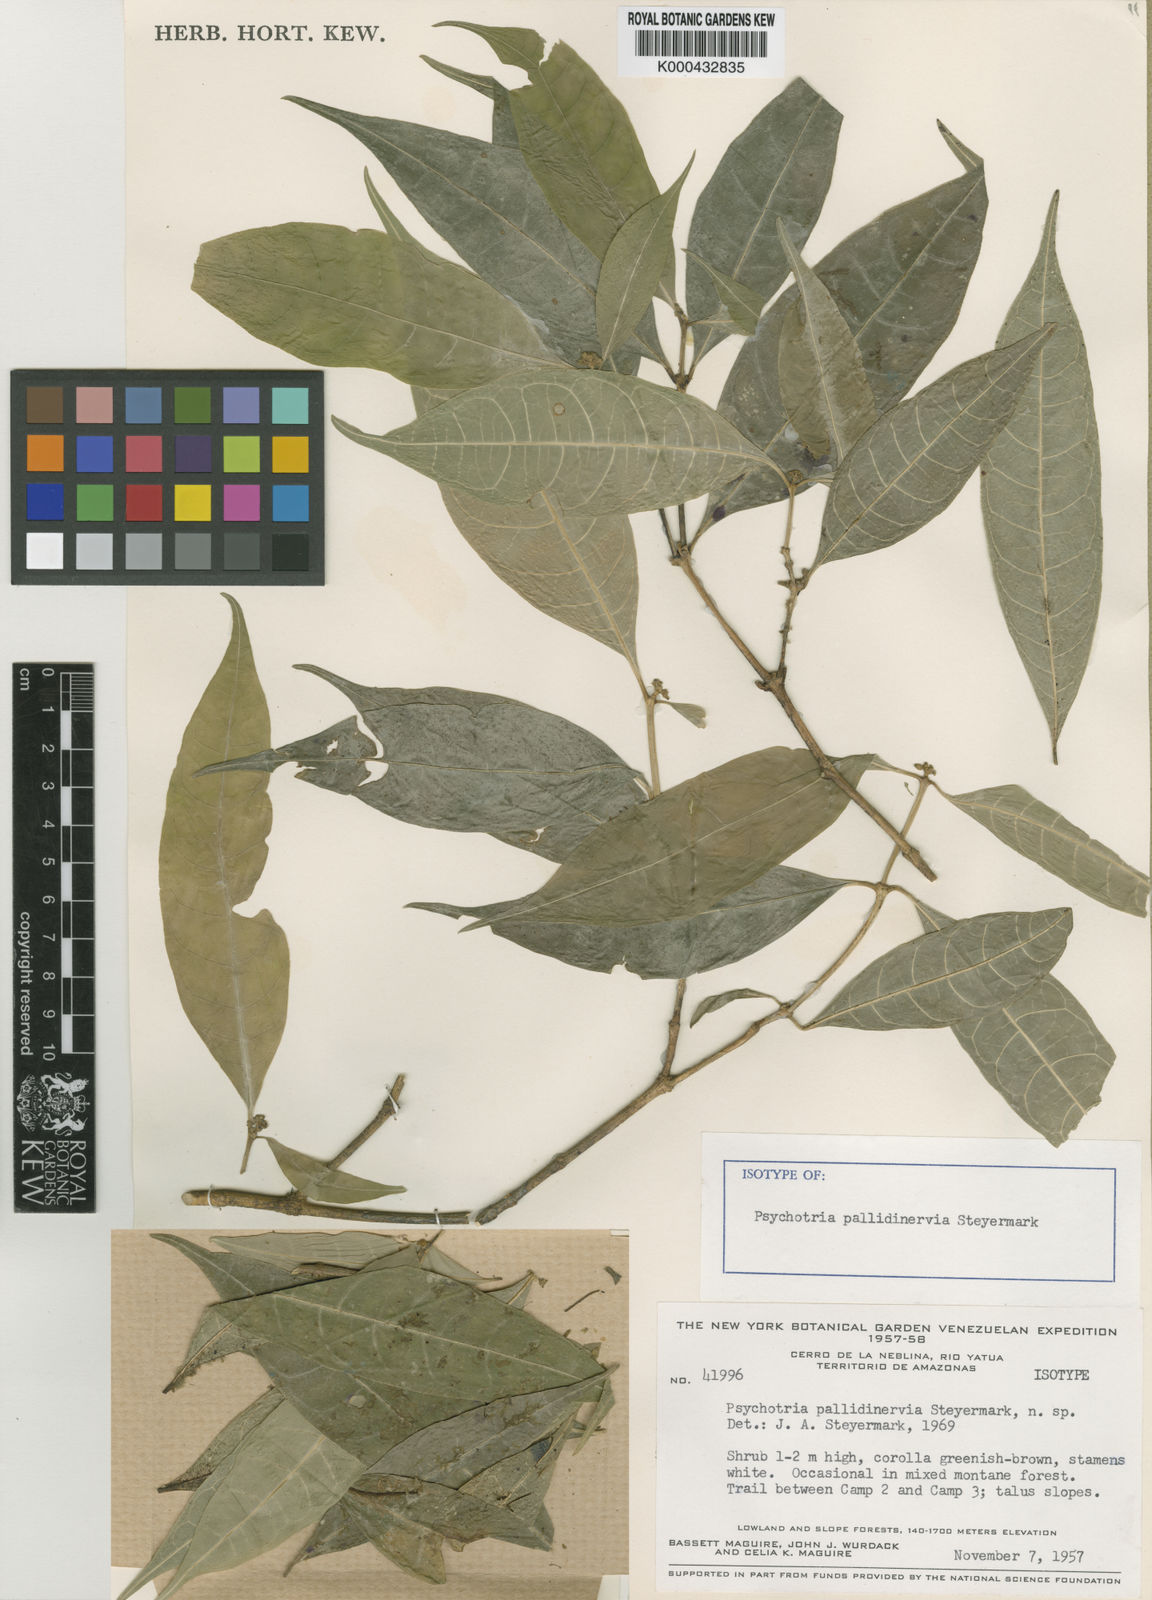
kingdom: Plantae
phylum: Tracheophyta
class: Magnoliopsida
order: Gentianales
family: Rubiaceae
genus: Eumachia
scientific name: Eumachia pallidinervia
